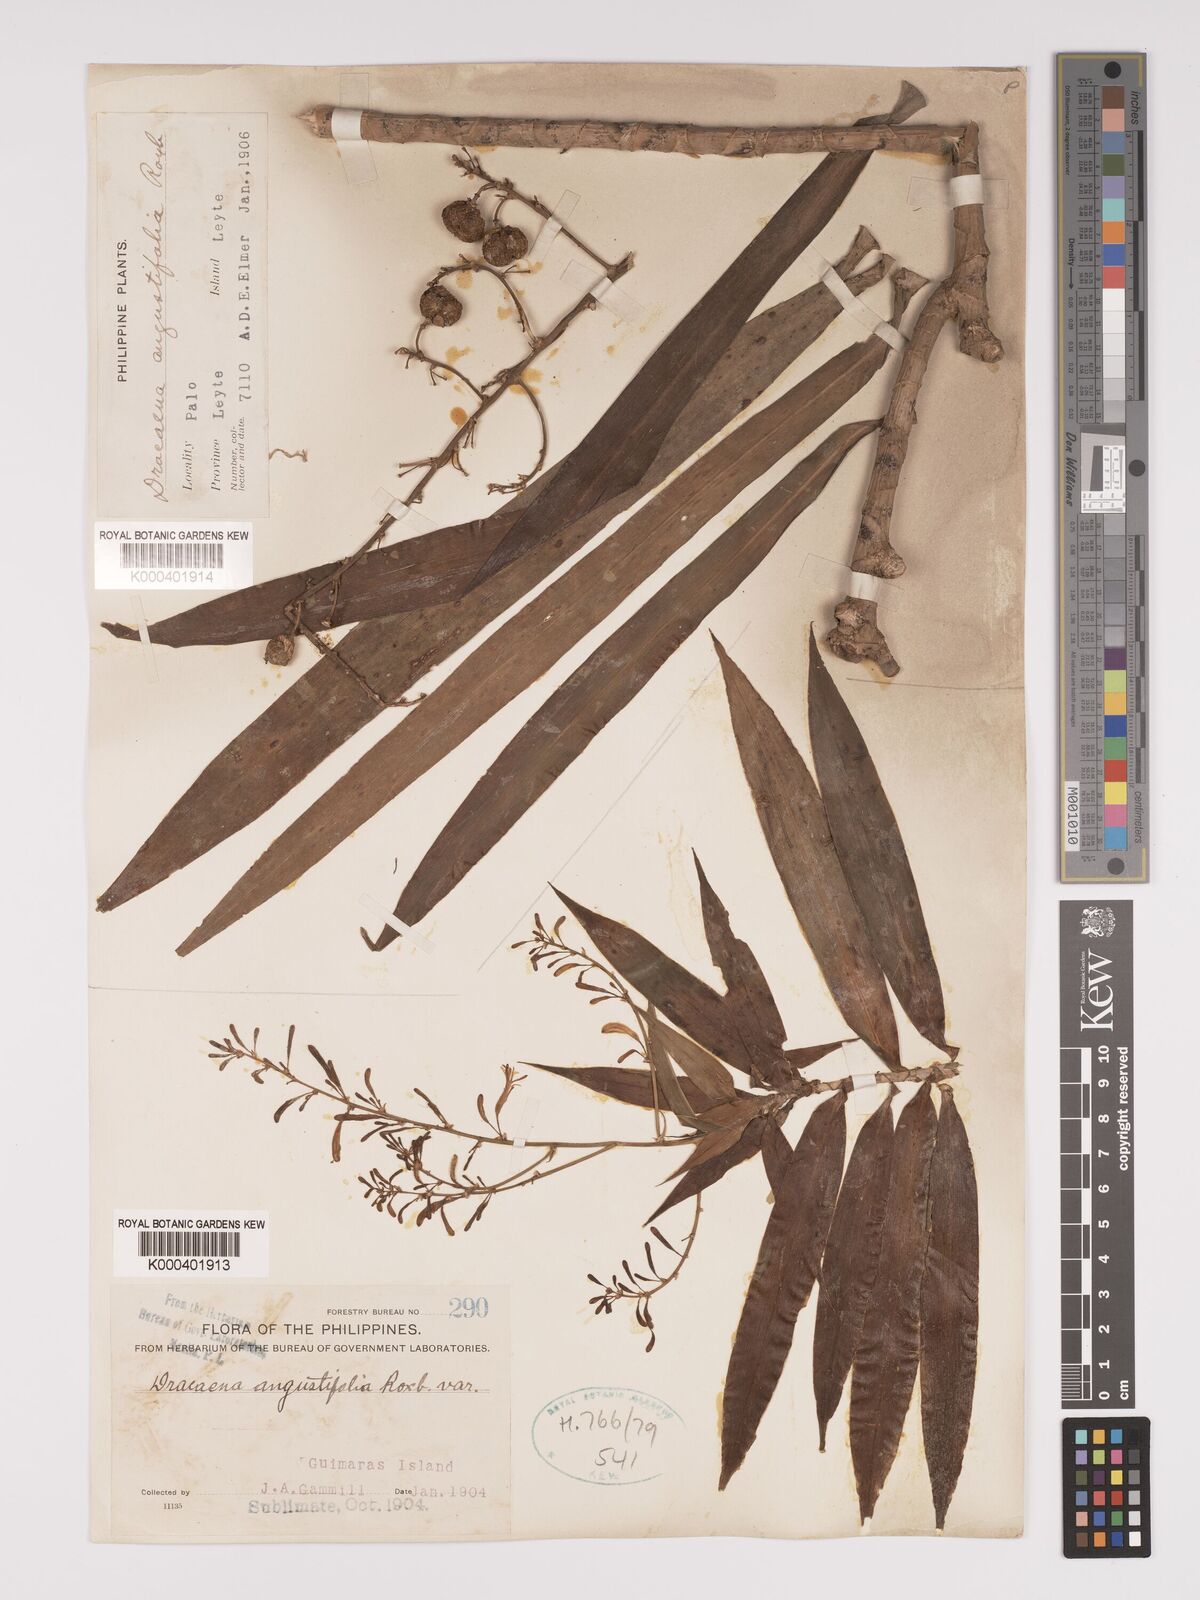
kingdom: Plantae
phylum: Tracheophyta
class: Liliopsida
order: Asparagales
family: Asparagaceae
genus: Dracaena
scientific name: Dracaena angustifolia
